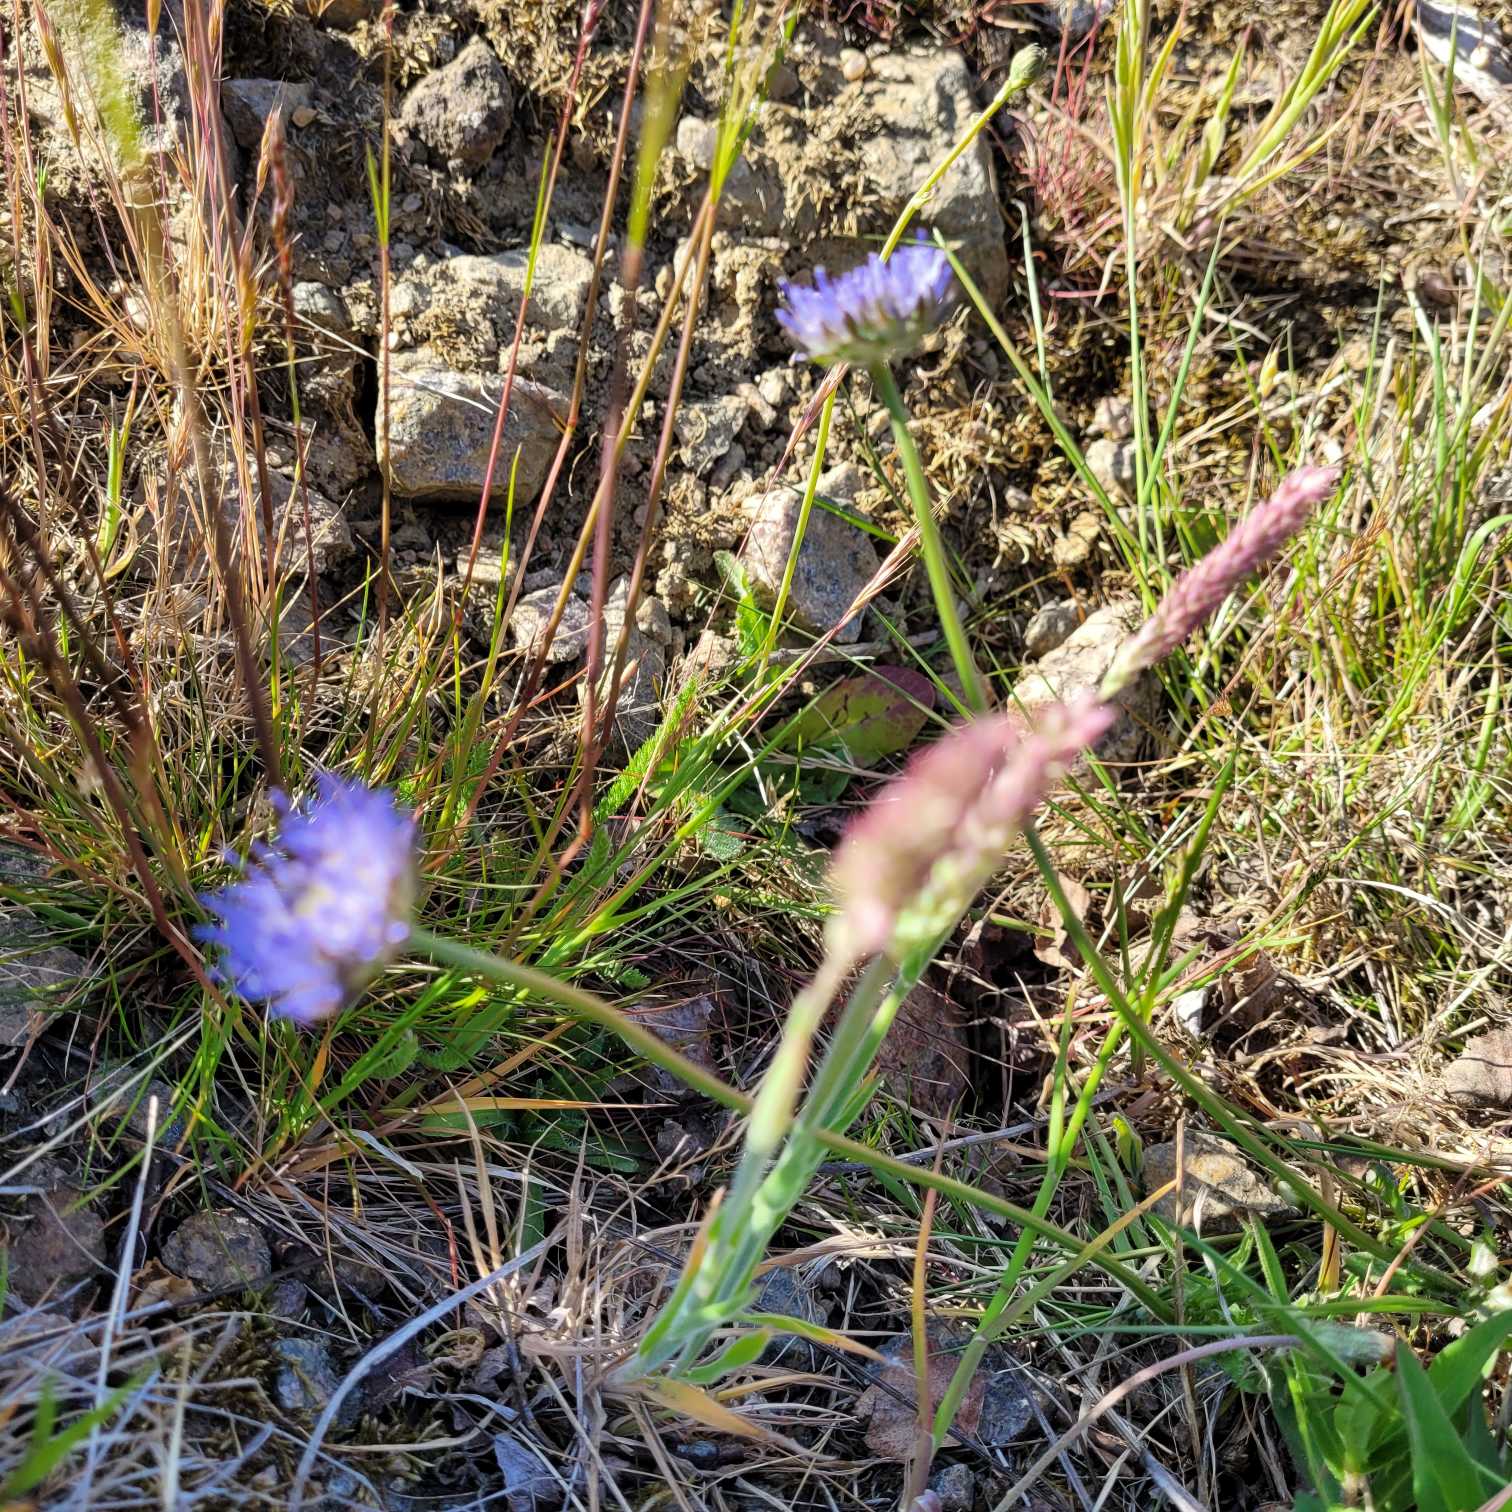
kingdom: Plantae
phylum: Tracheophyta
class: Magnoliopsida
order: Asterales
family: Campanulaceae
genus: Jasione
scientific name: Jasione montana
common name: Blåmunke
